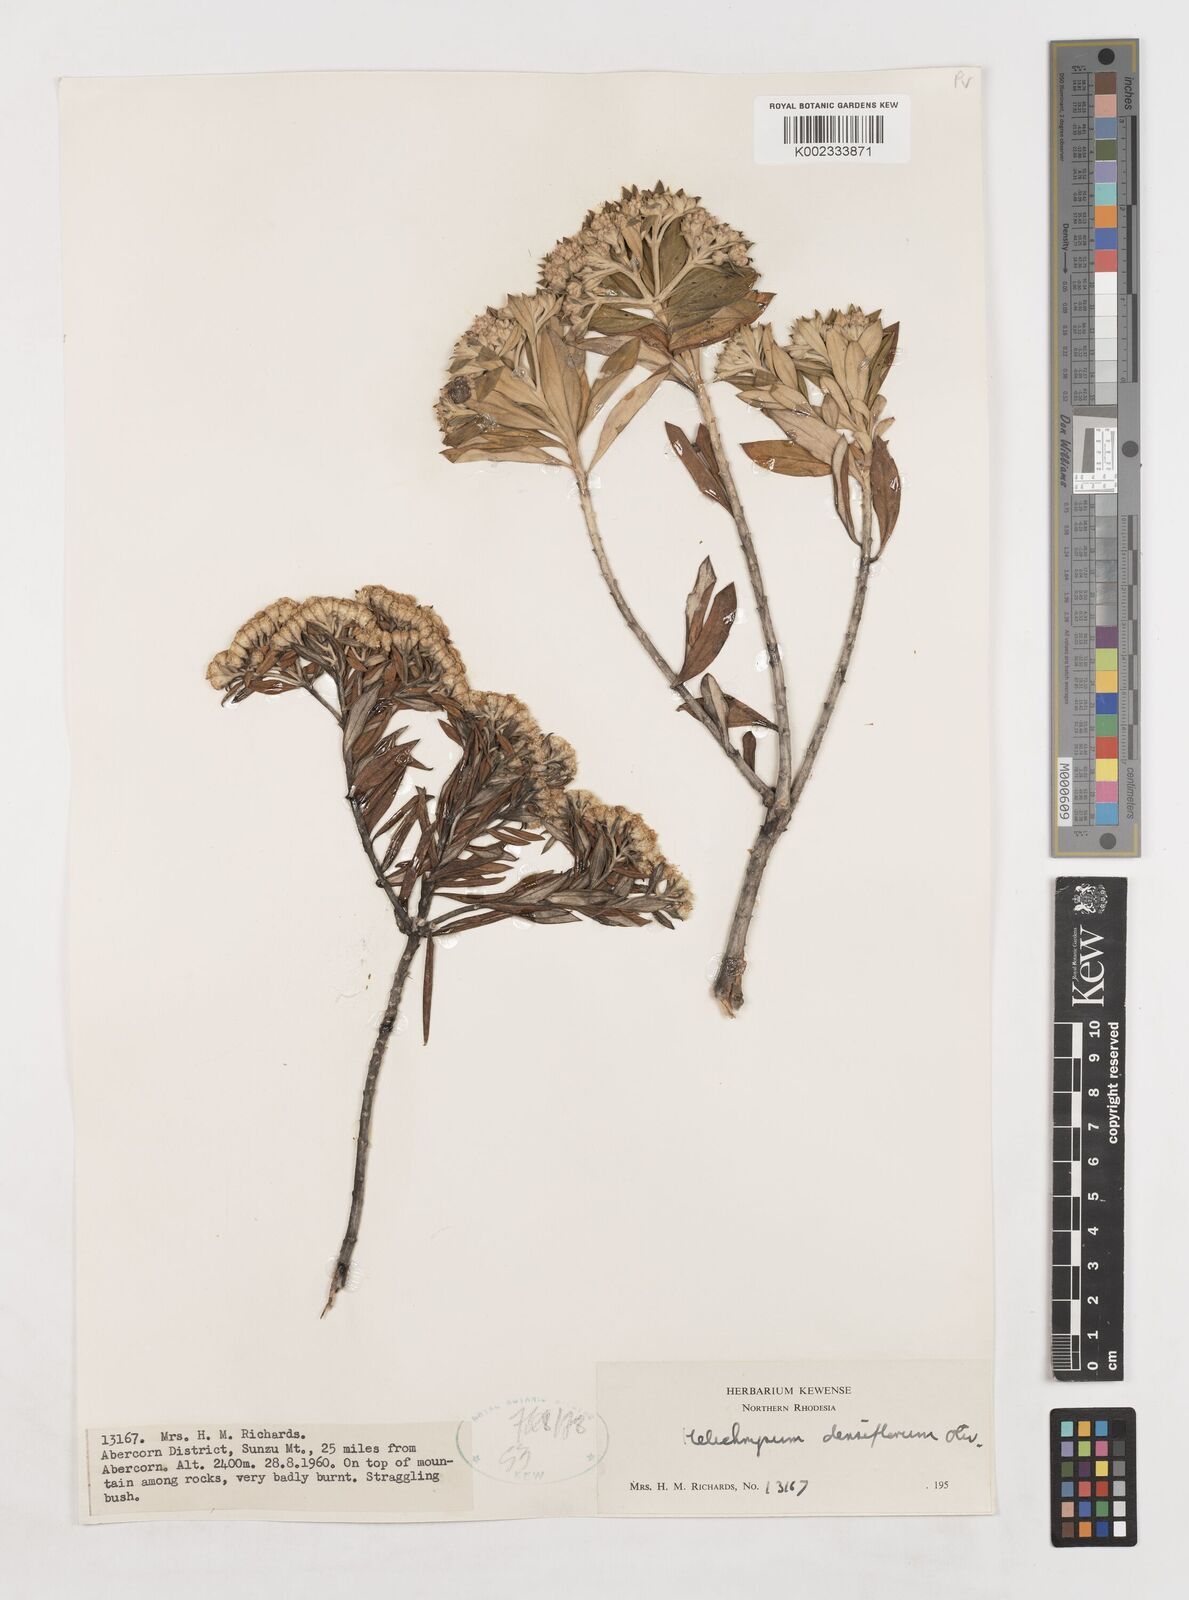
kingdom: Plantae
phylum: Tracheophyta
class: Magnoliopsida
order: Asterales
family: Asteraceae
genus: Helichrysum
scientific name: Helichrysum densiflorum
